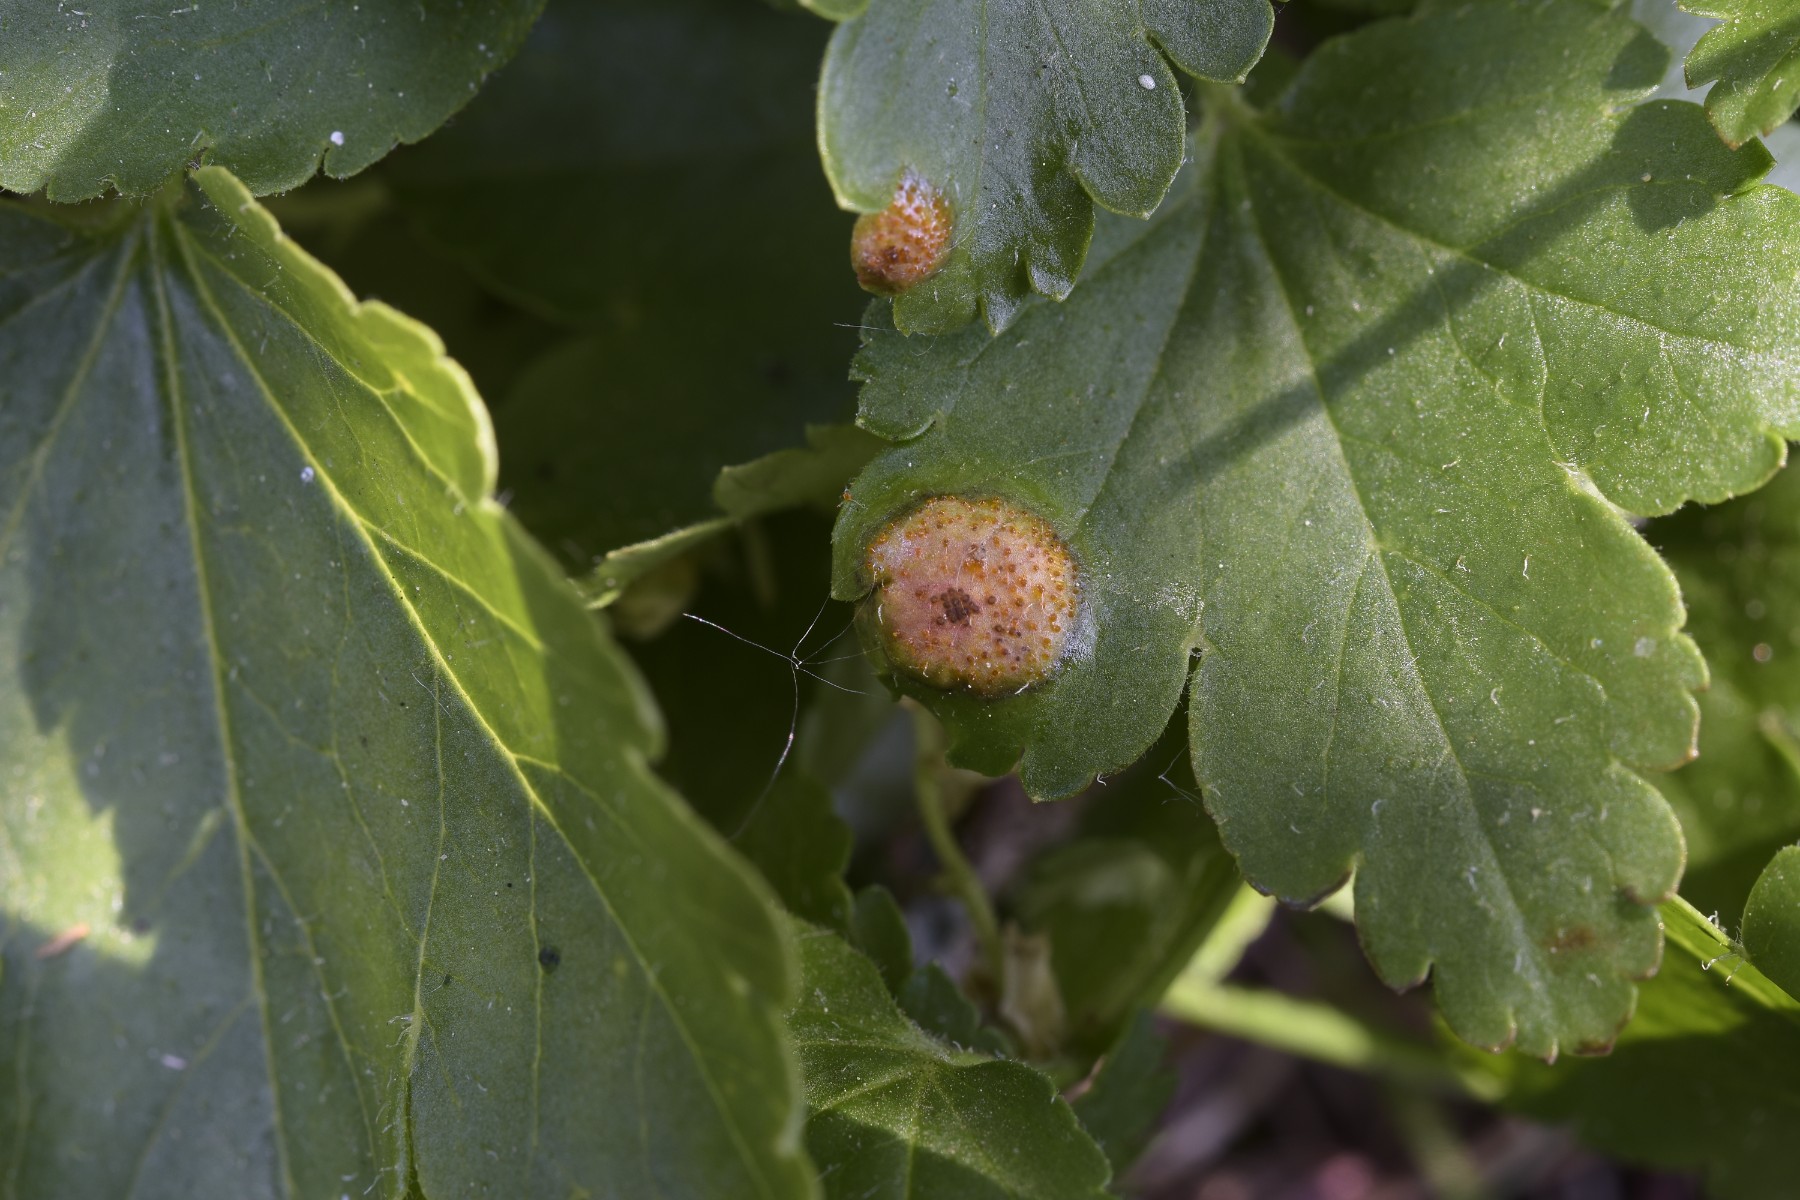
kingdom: Fungi
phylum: Basidiomycota
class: Pucciniomycetes
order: Pucciniales
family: Pucciniaceae
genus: Puccinia
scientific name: Puccinia caricina
